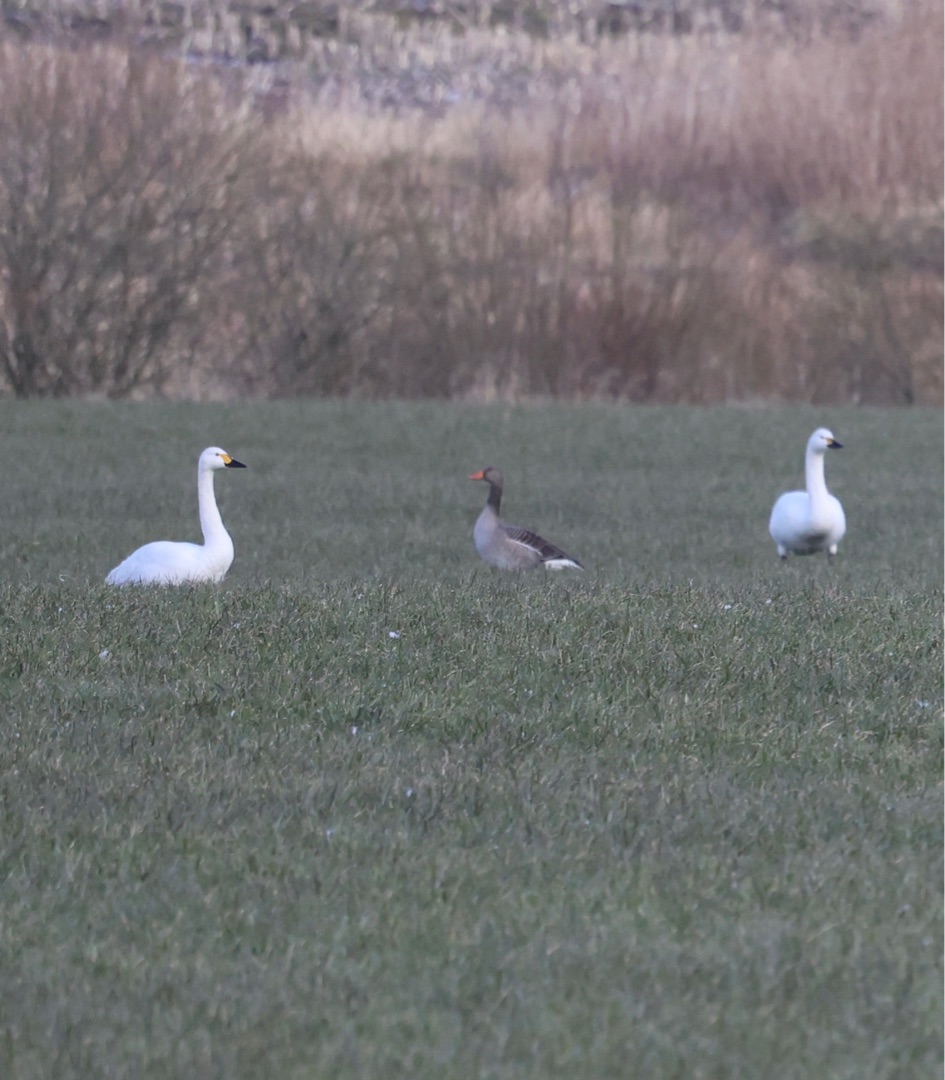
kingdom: Animalia
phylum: Chordata
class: Aves
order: Anseriformes
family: Anatidae
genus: Cygnus
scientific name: Cygnus columbianus
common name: Pibesvane
